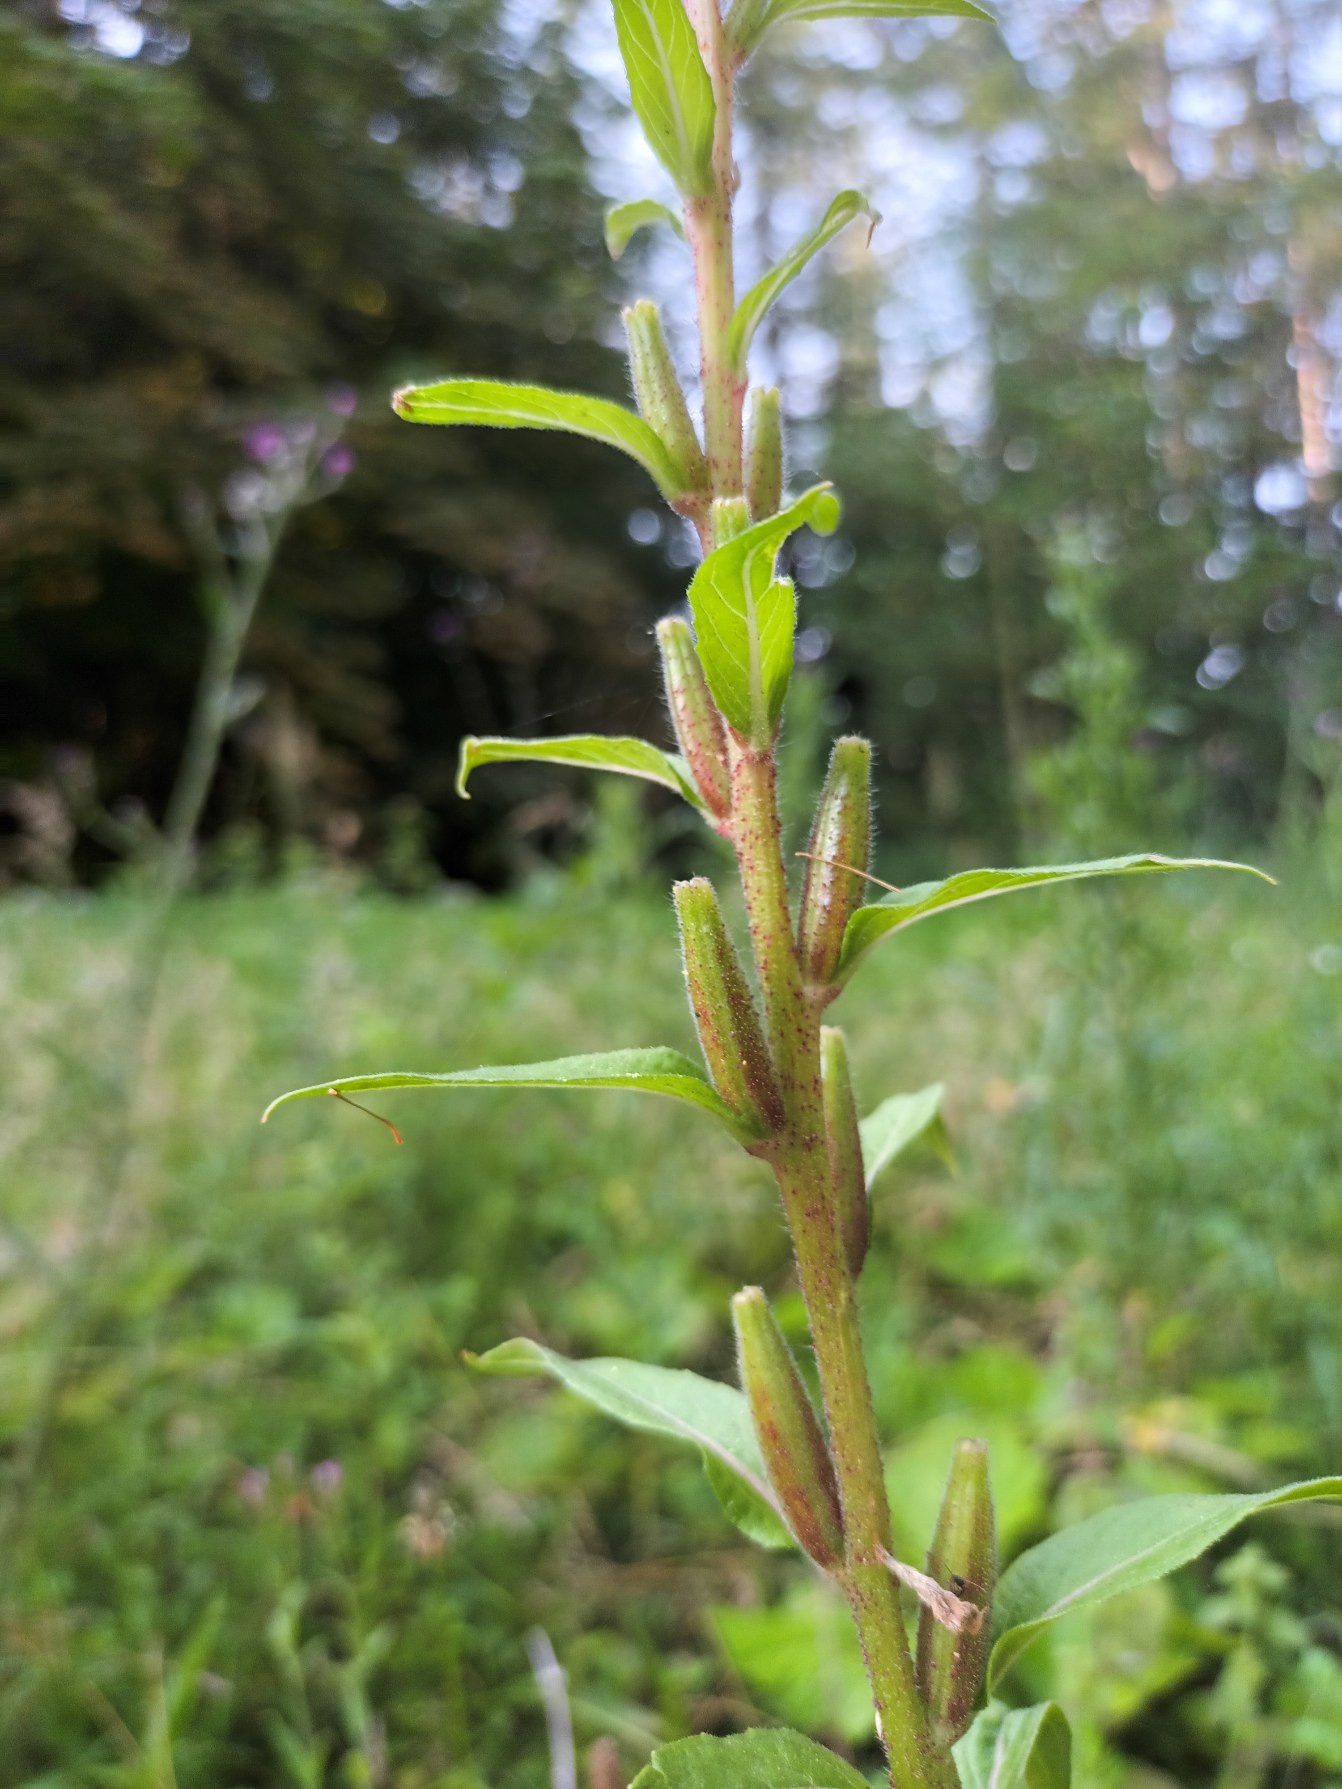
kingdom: Plantae
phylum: Tracheophyta
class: Magnoliopsida
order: Myrtales
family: Onagraceae
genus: Oenothera
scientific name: Oenothera biennis
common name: Rødfrugtet natlys
